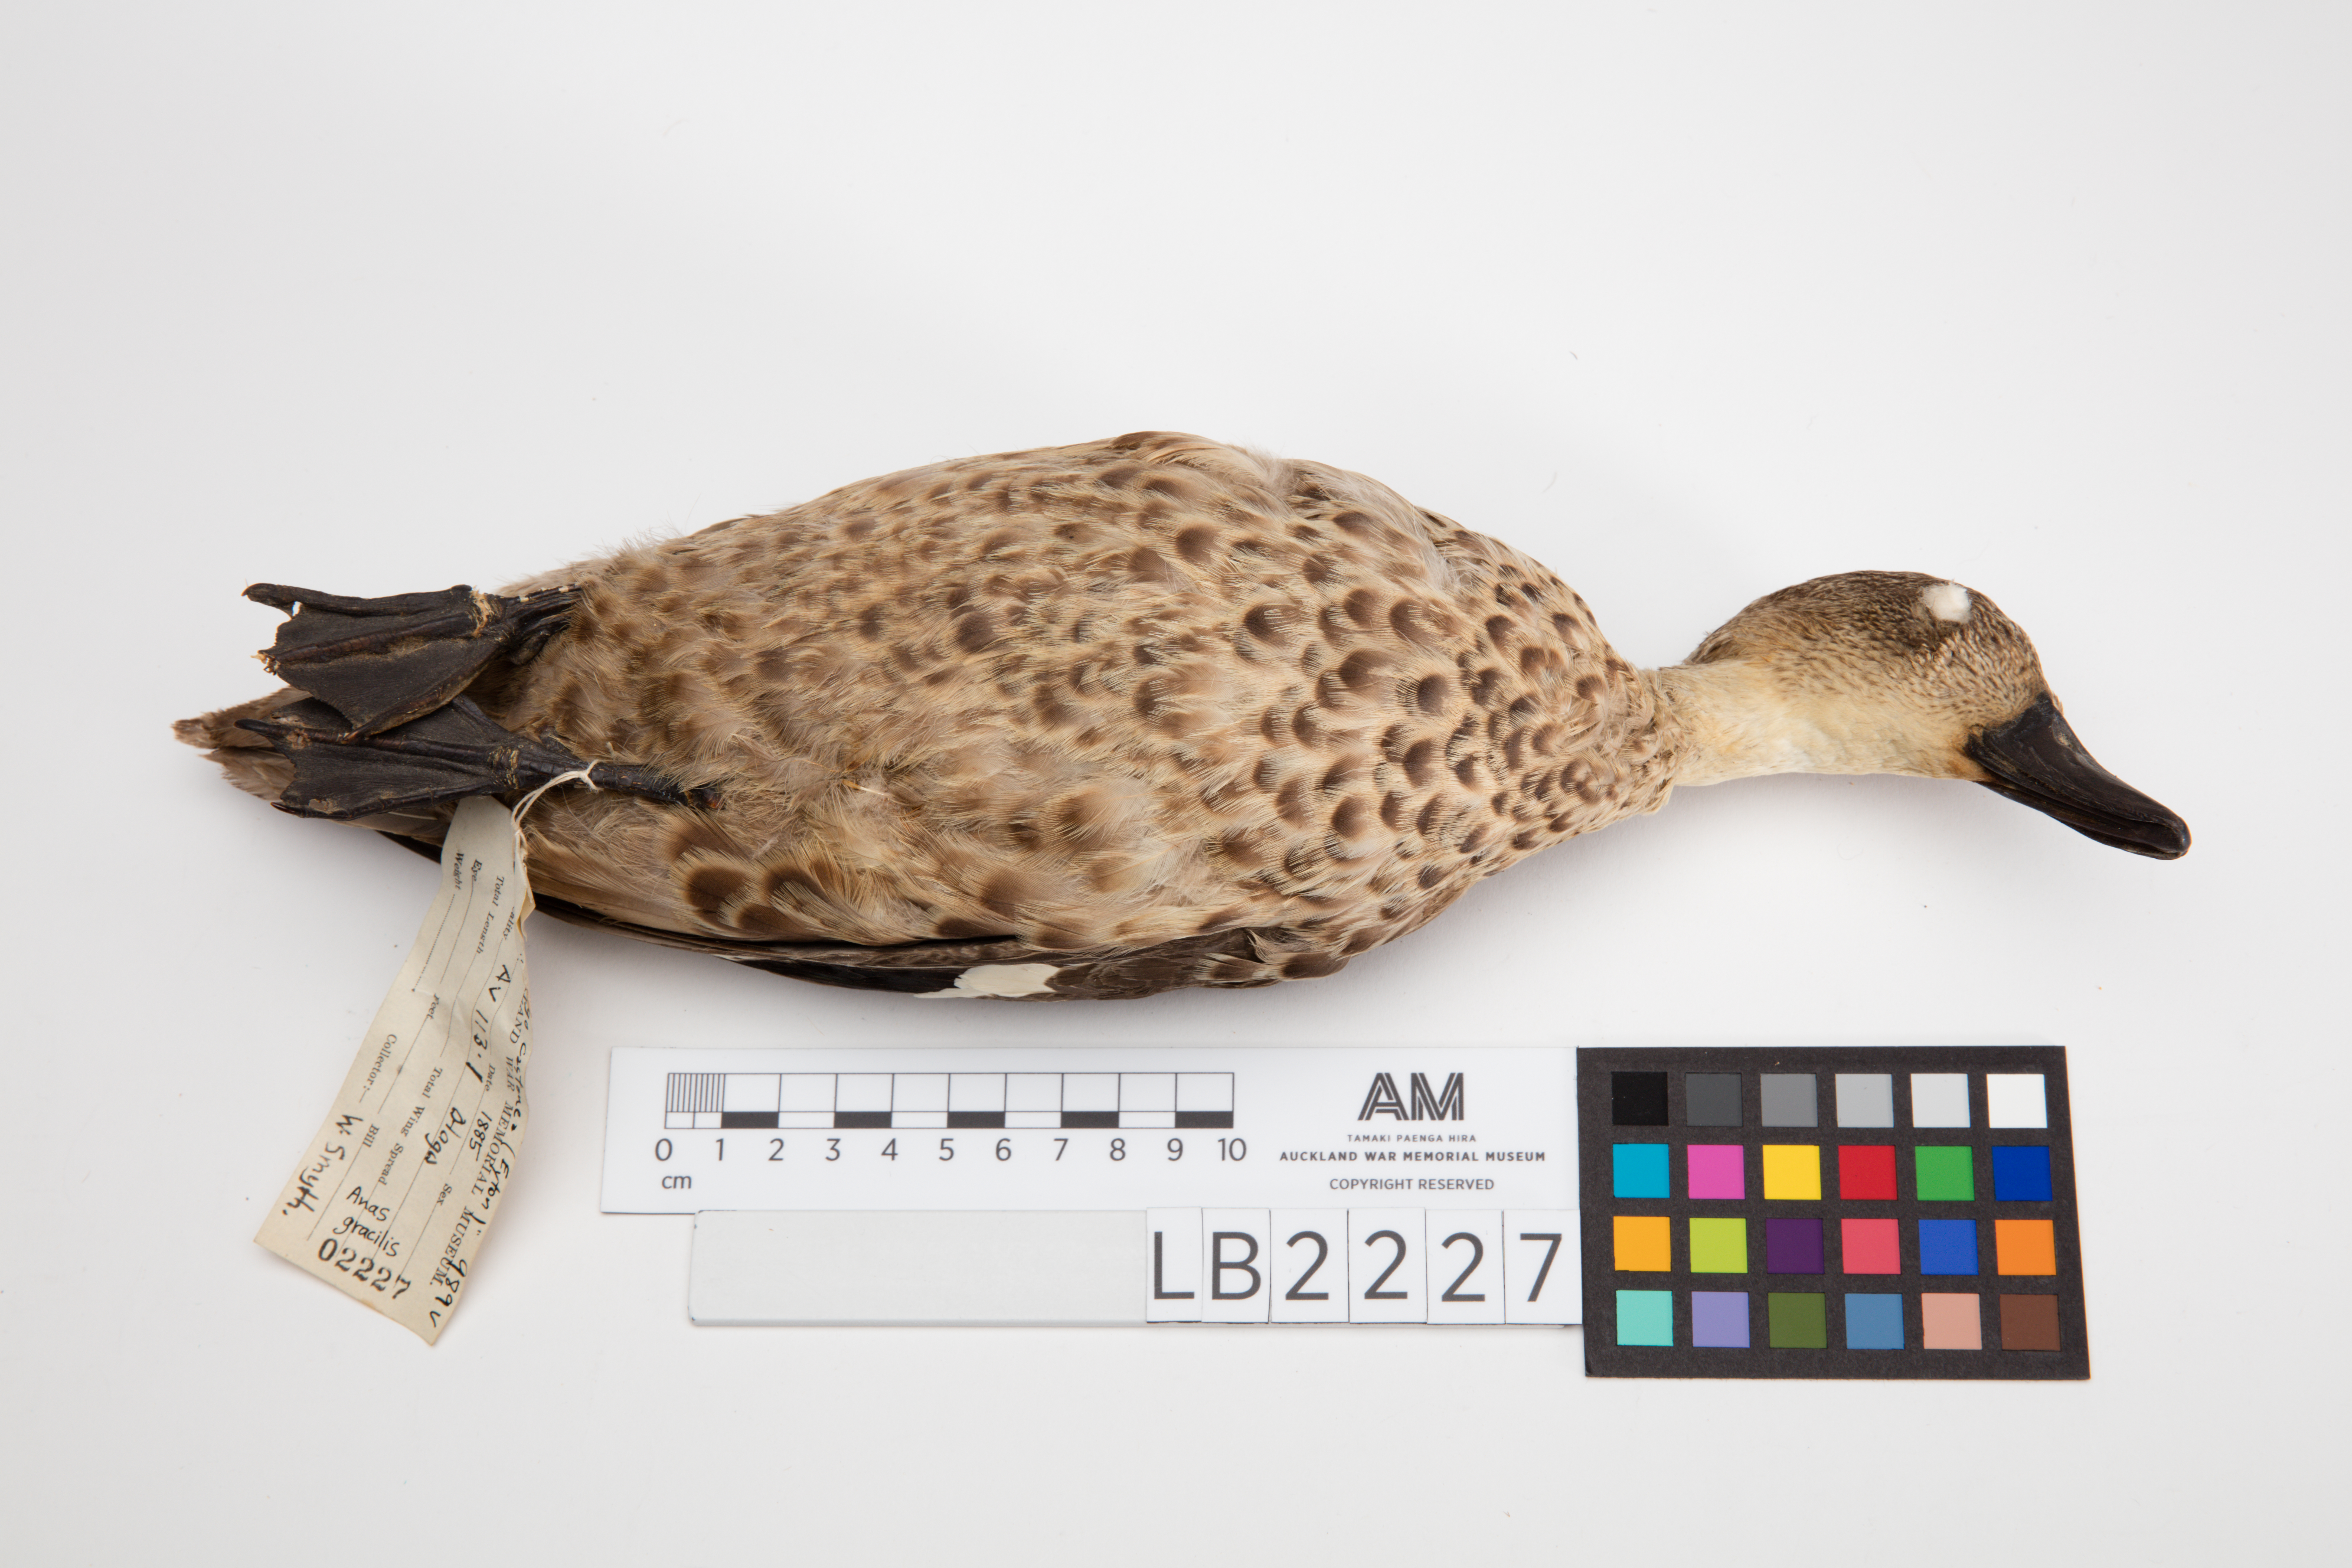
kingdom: Animalia
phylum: Chordata
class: Aves
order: Anseriformes
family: Anatidae
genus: Anas
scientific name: Anas gracilis
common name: Grey teal
